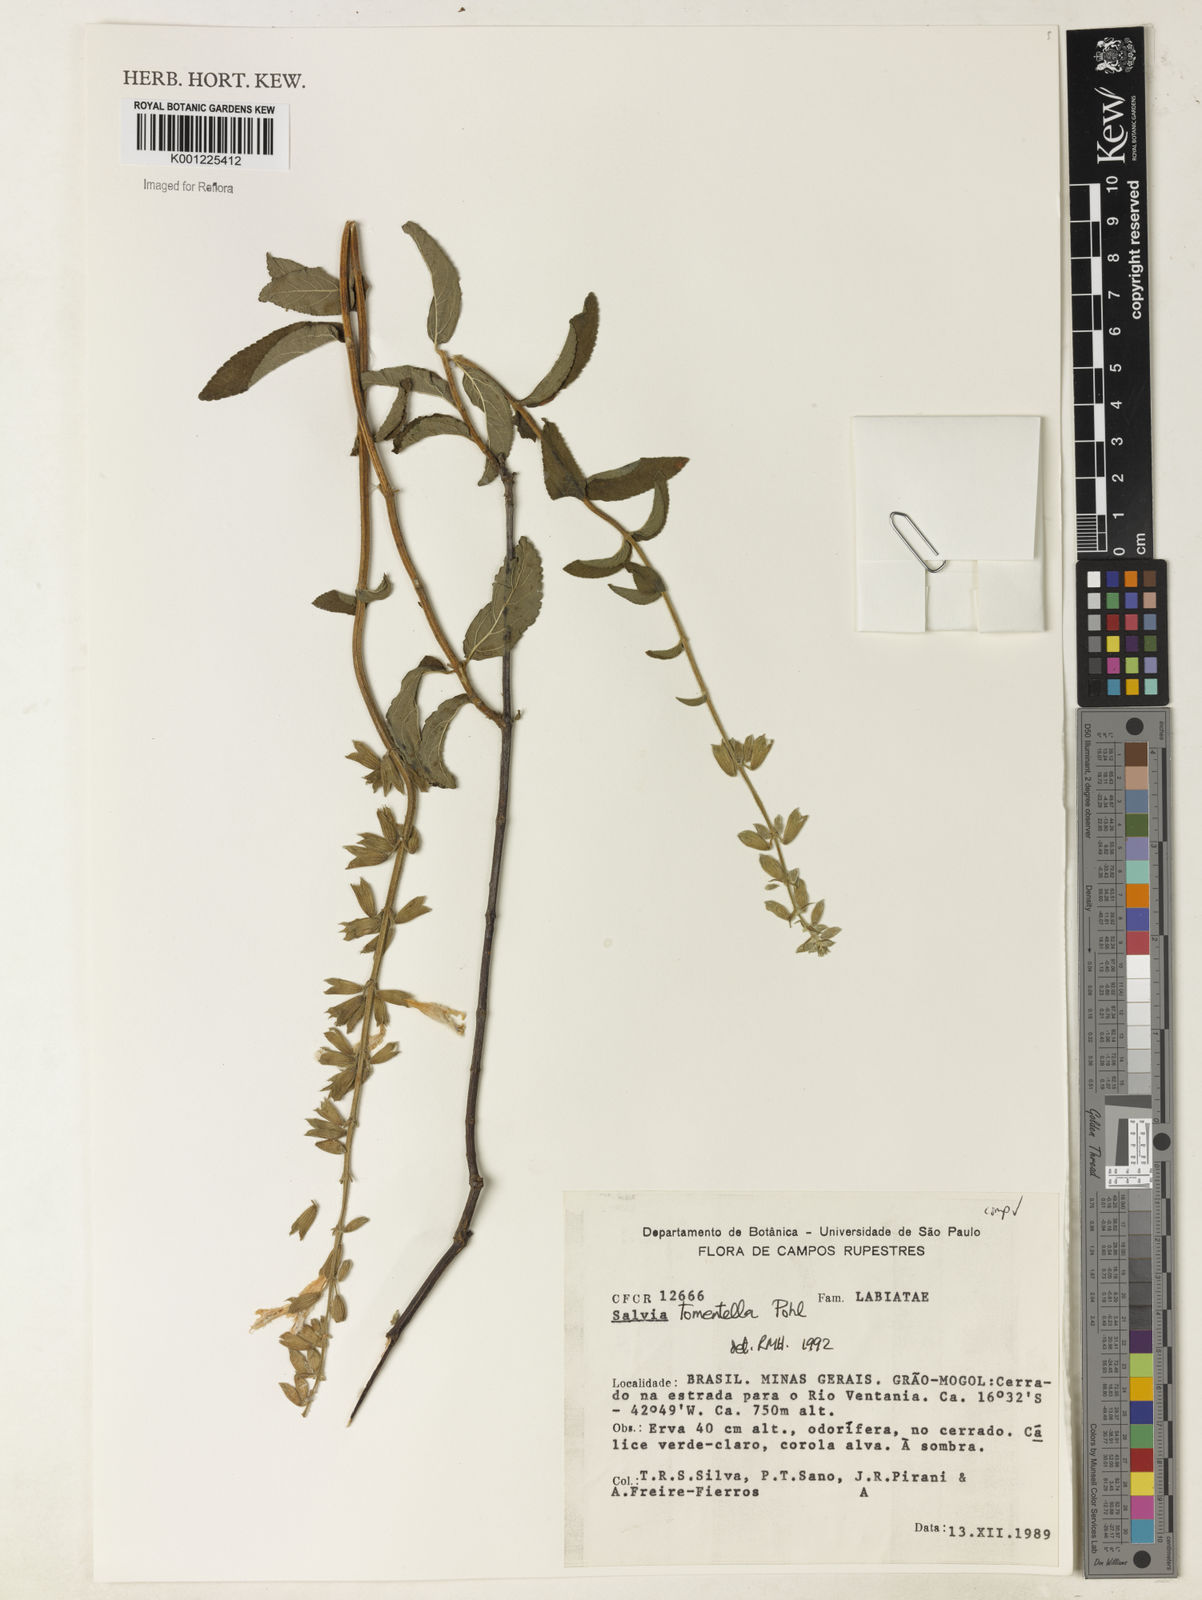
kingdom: Plantae
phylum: Tracheophyta
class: Magnoliopsida
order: Lamiales
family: Lamiaceae
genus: Salvia
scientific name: Salvia tomentella
